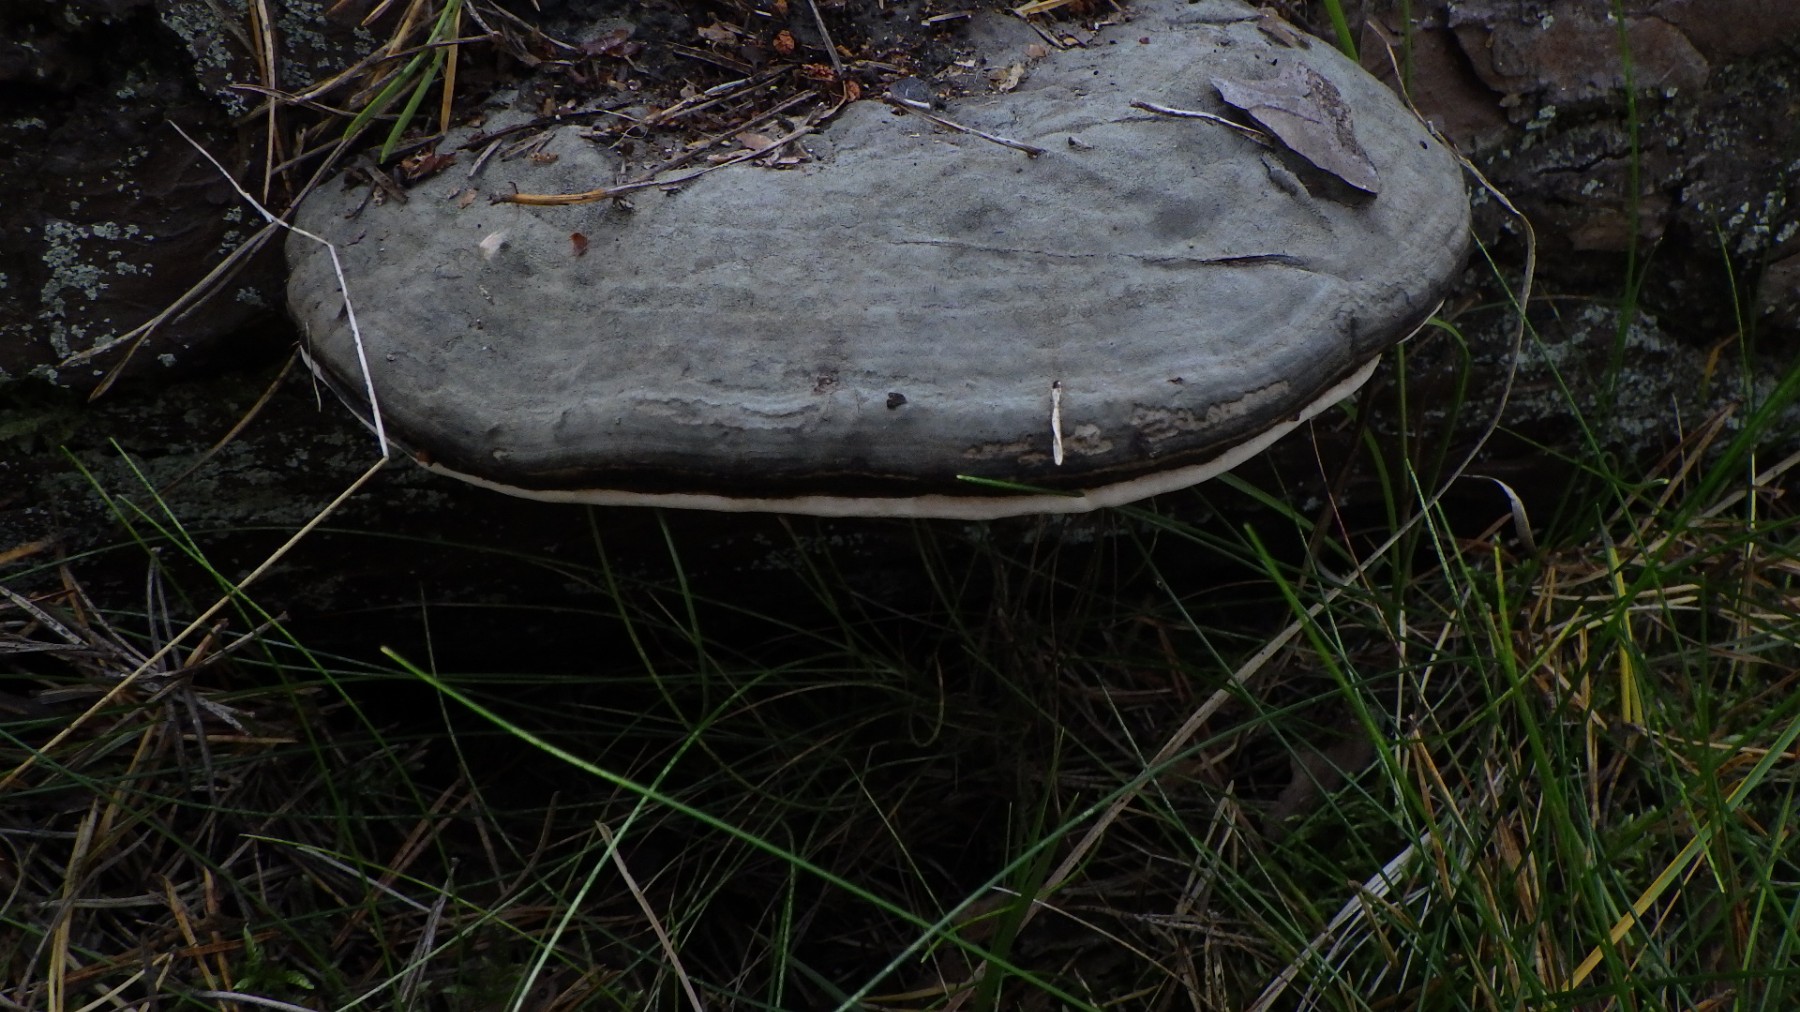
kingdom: Fungi
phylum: Basidiomycota
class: Agaricomycetes
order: Polyporales
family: Fomitopsidaceae
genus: Fomitopsis
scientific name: Fomitopsis pinicola
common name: randbæltet hovporesvamp
